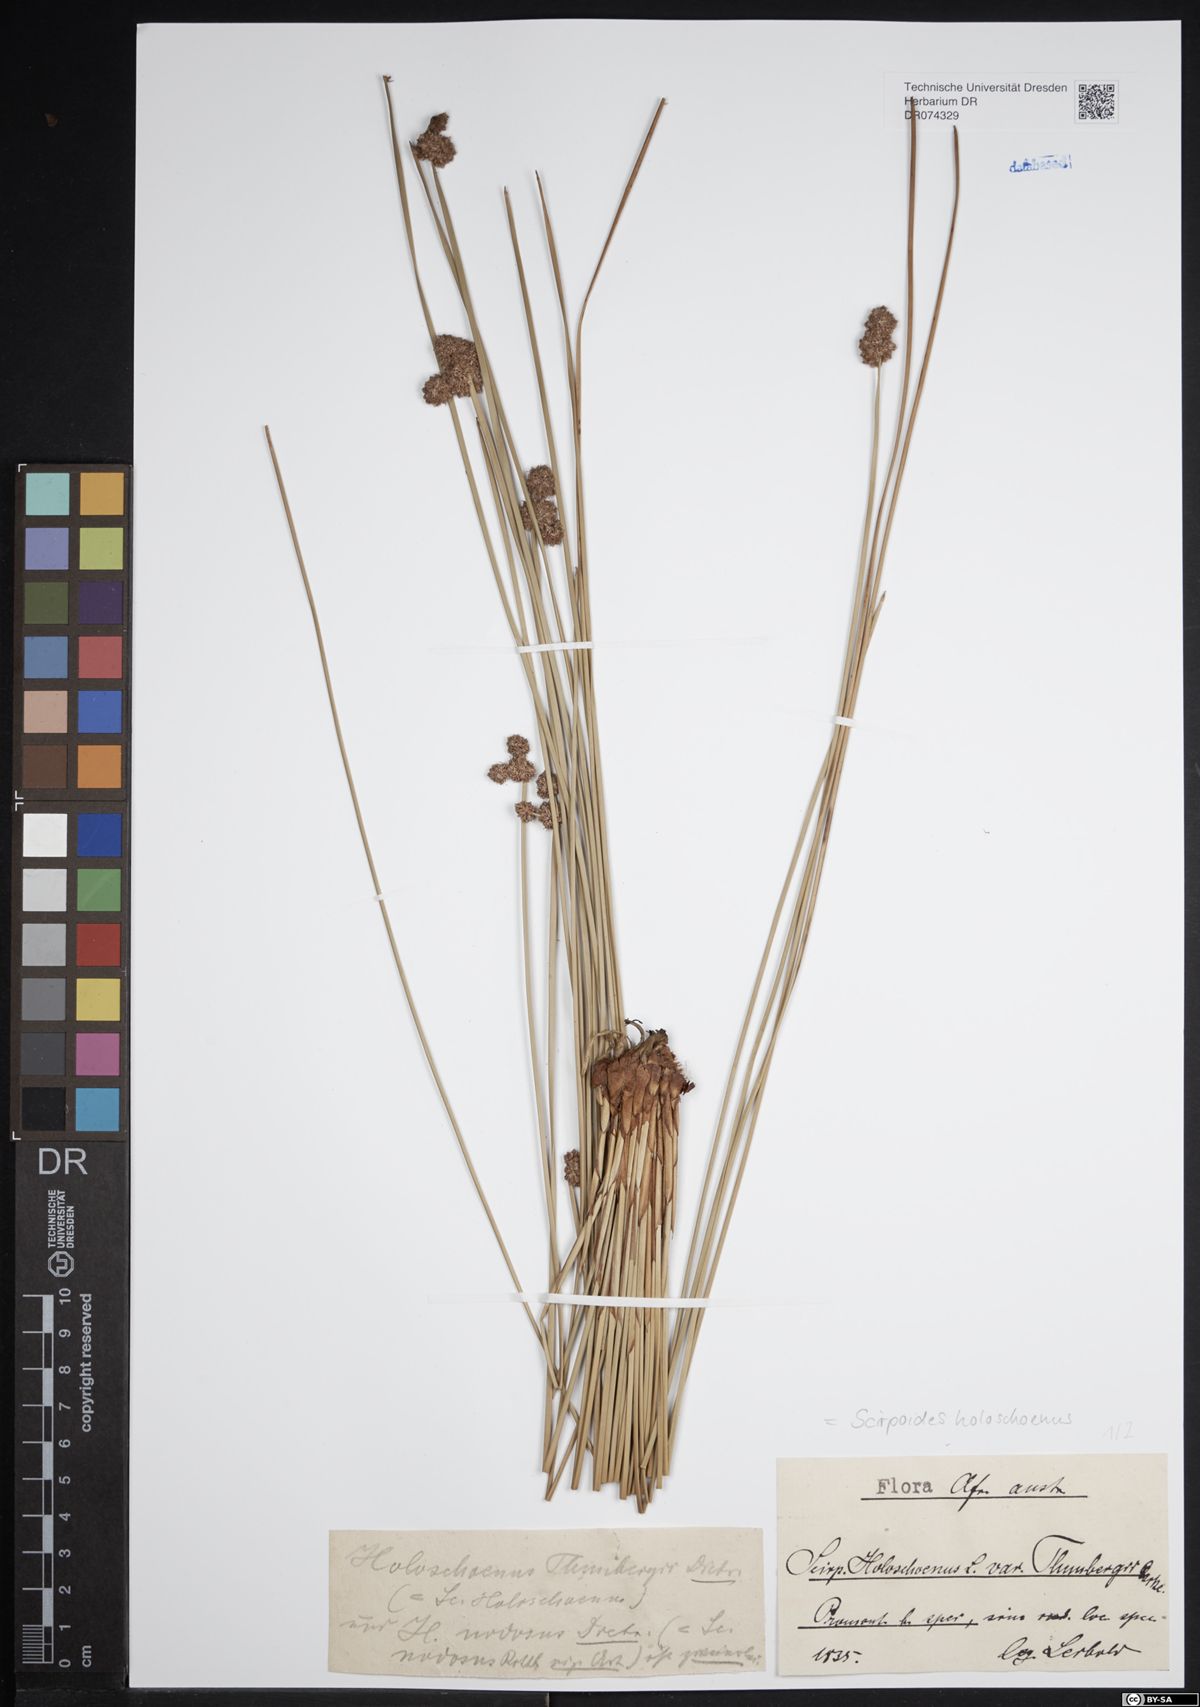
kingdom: Plantae
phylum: Tracheophyta
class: Liliopsida
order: Poales
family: Cyperaceae
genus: Scirpoides
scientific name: Scirpoides holoschoenus
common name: Round-headed club-rush
